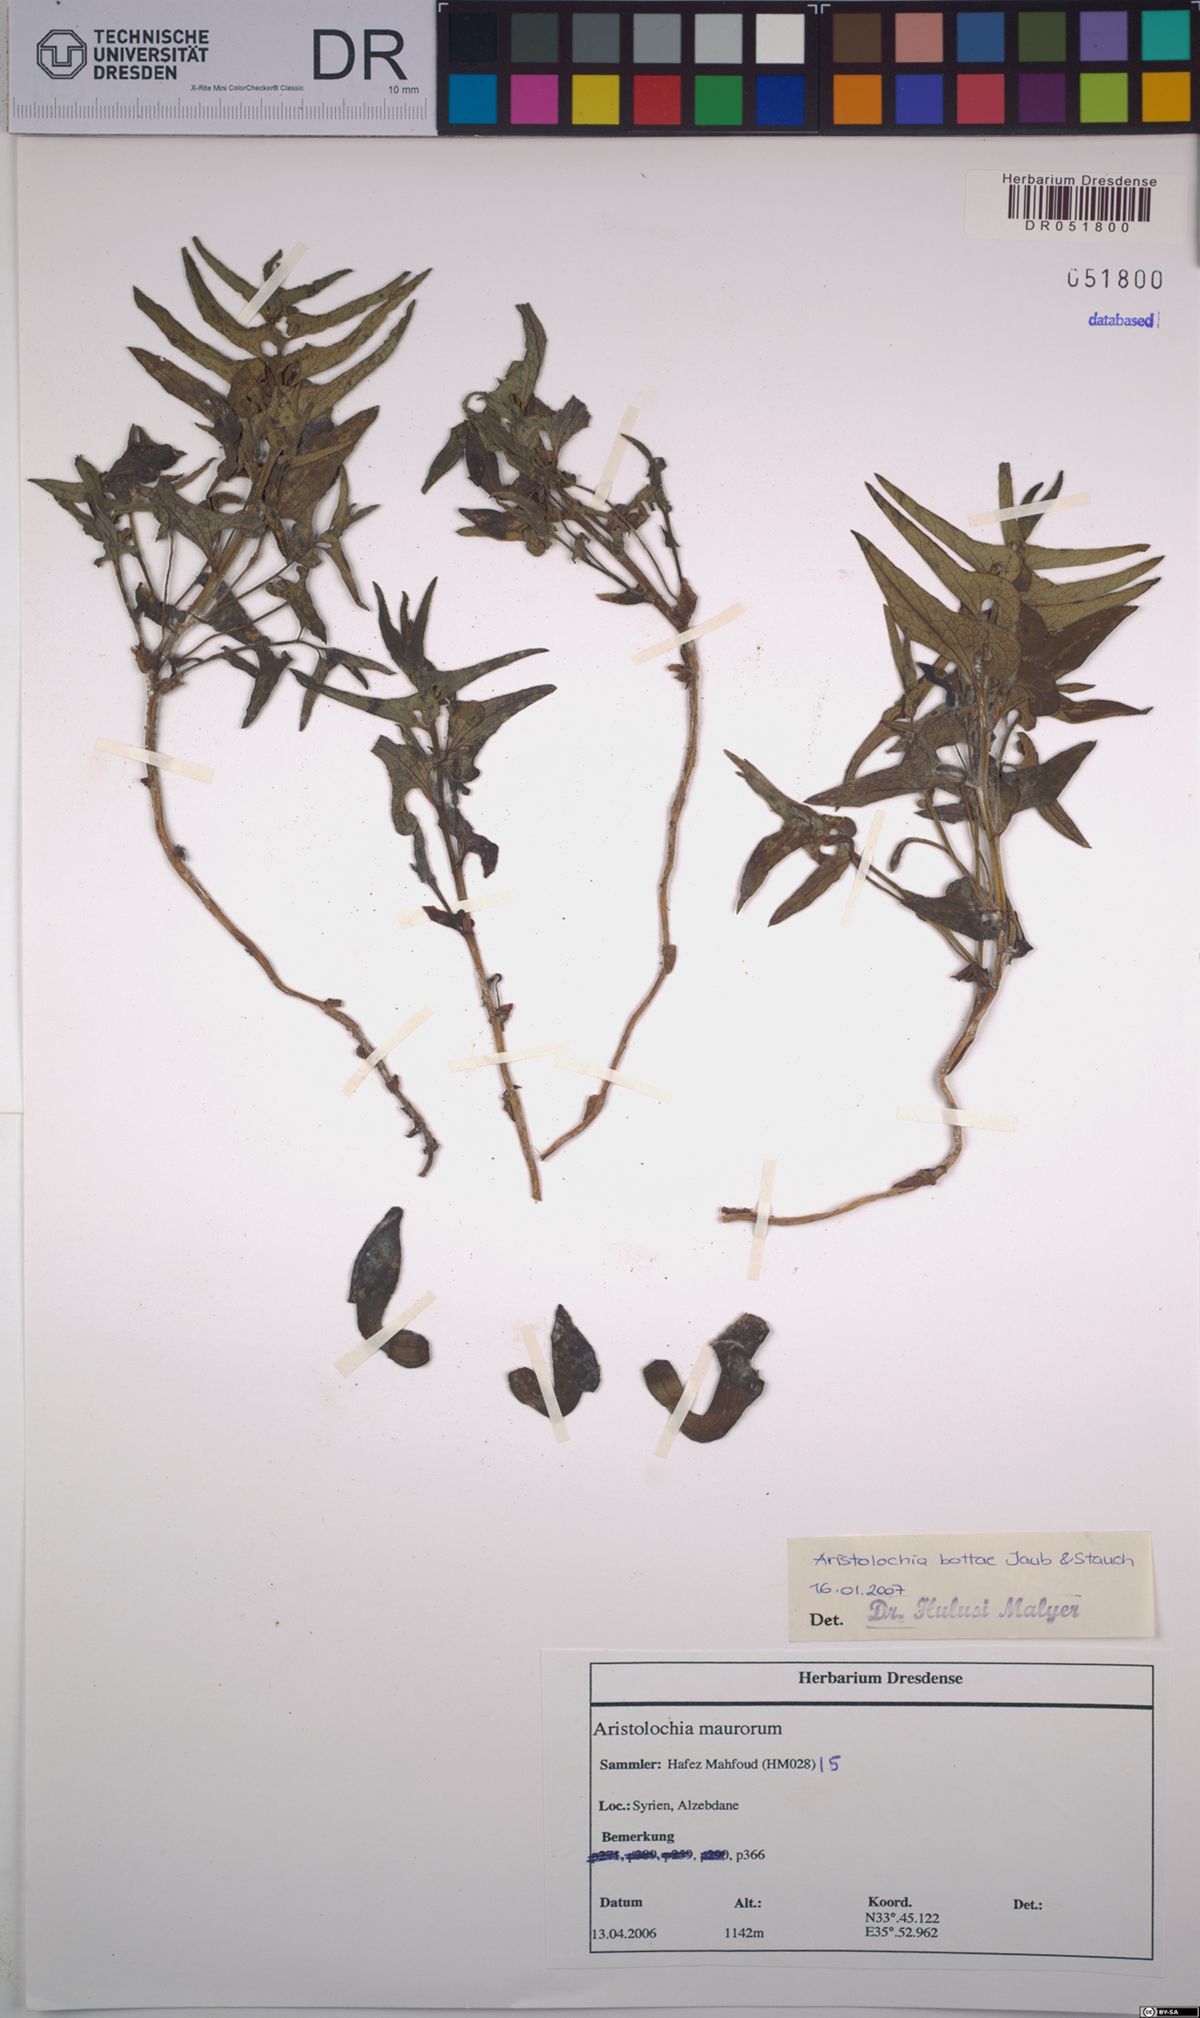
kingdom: Plantae
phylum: Tracheophyta
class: Magnoliopsida
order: Piperales
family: Aristolochiaceae
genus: Aristolochia
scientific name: Aristolochia bottae
